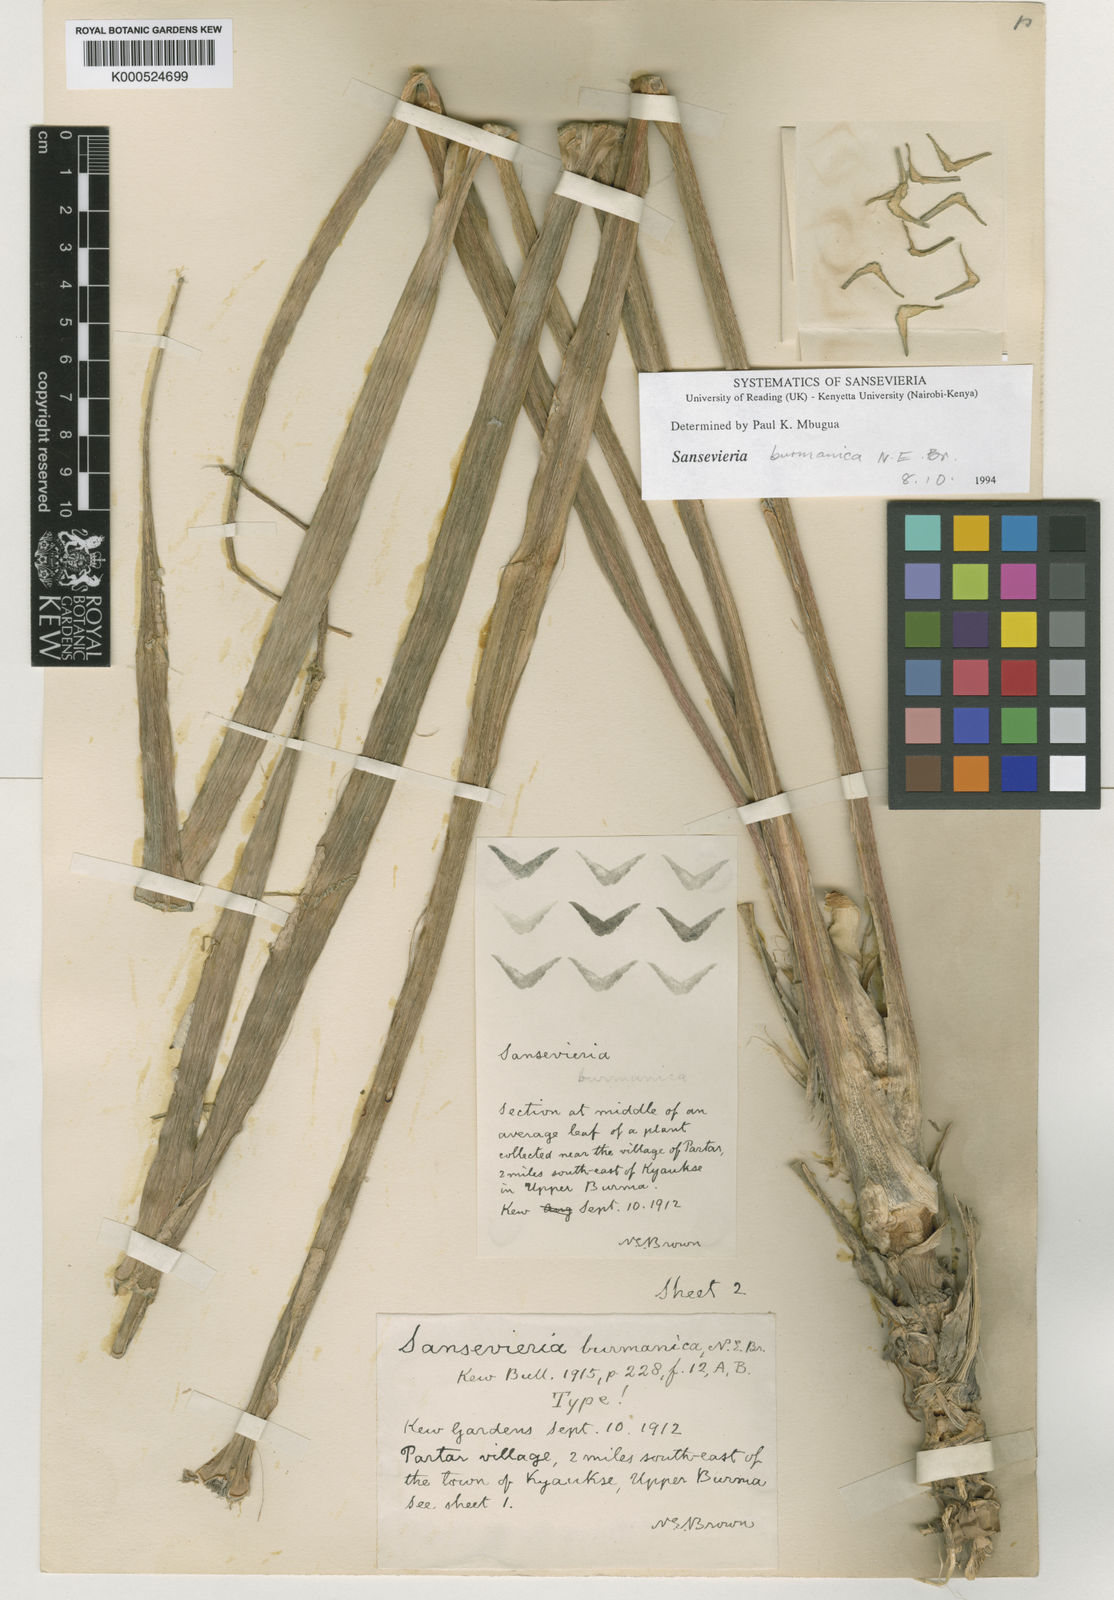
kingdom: Plantae
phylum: Tracheophyta
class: Liliopsida
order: Asparagales
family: Asparagaceae
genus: Dracaena
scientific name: Dracaena burmanica
